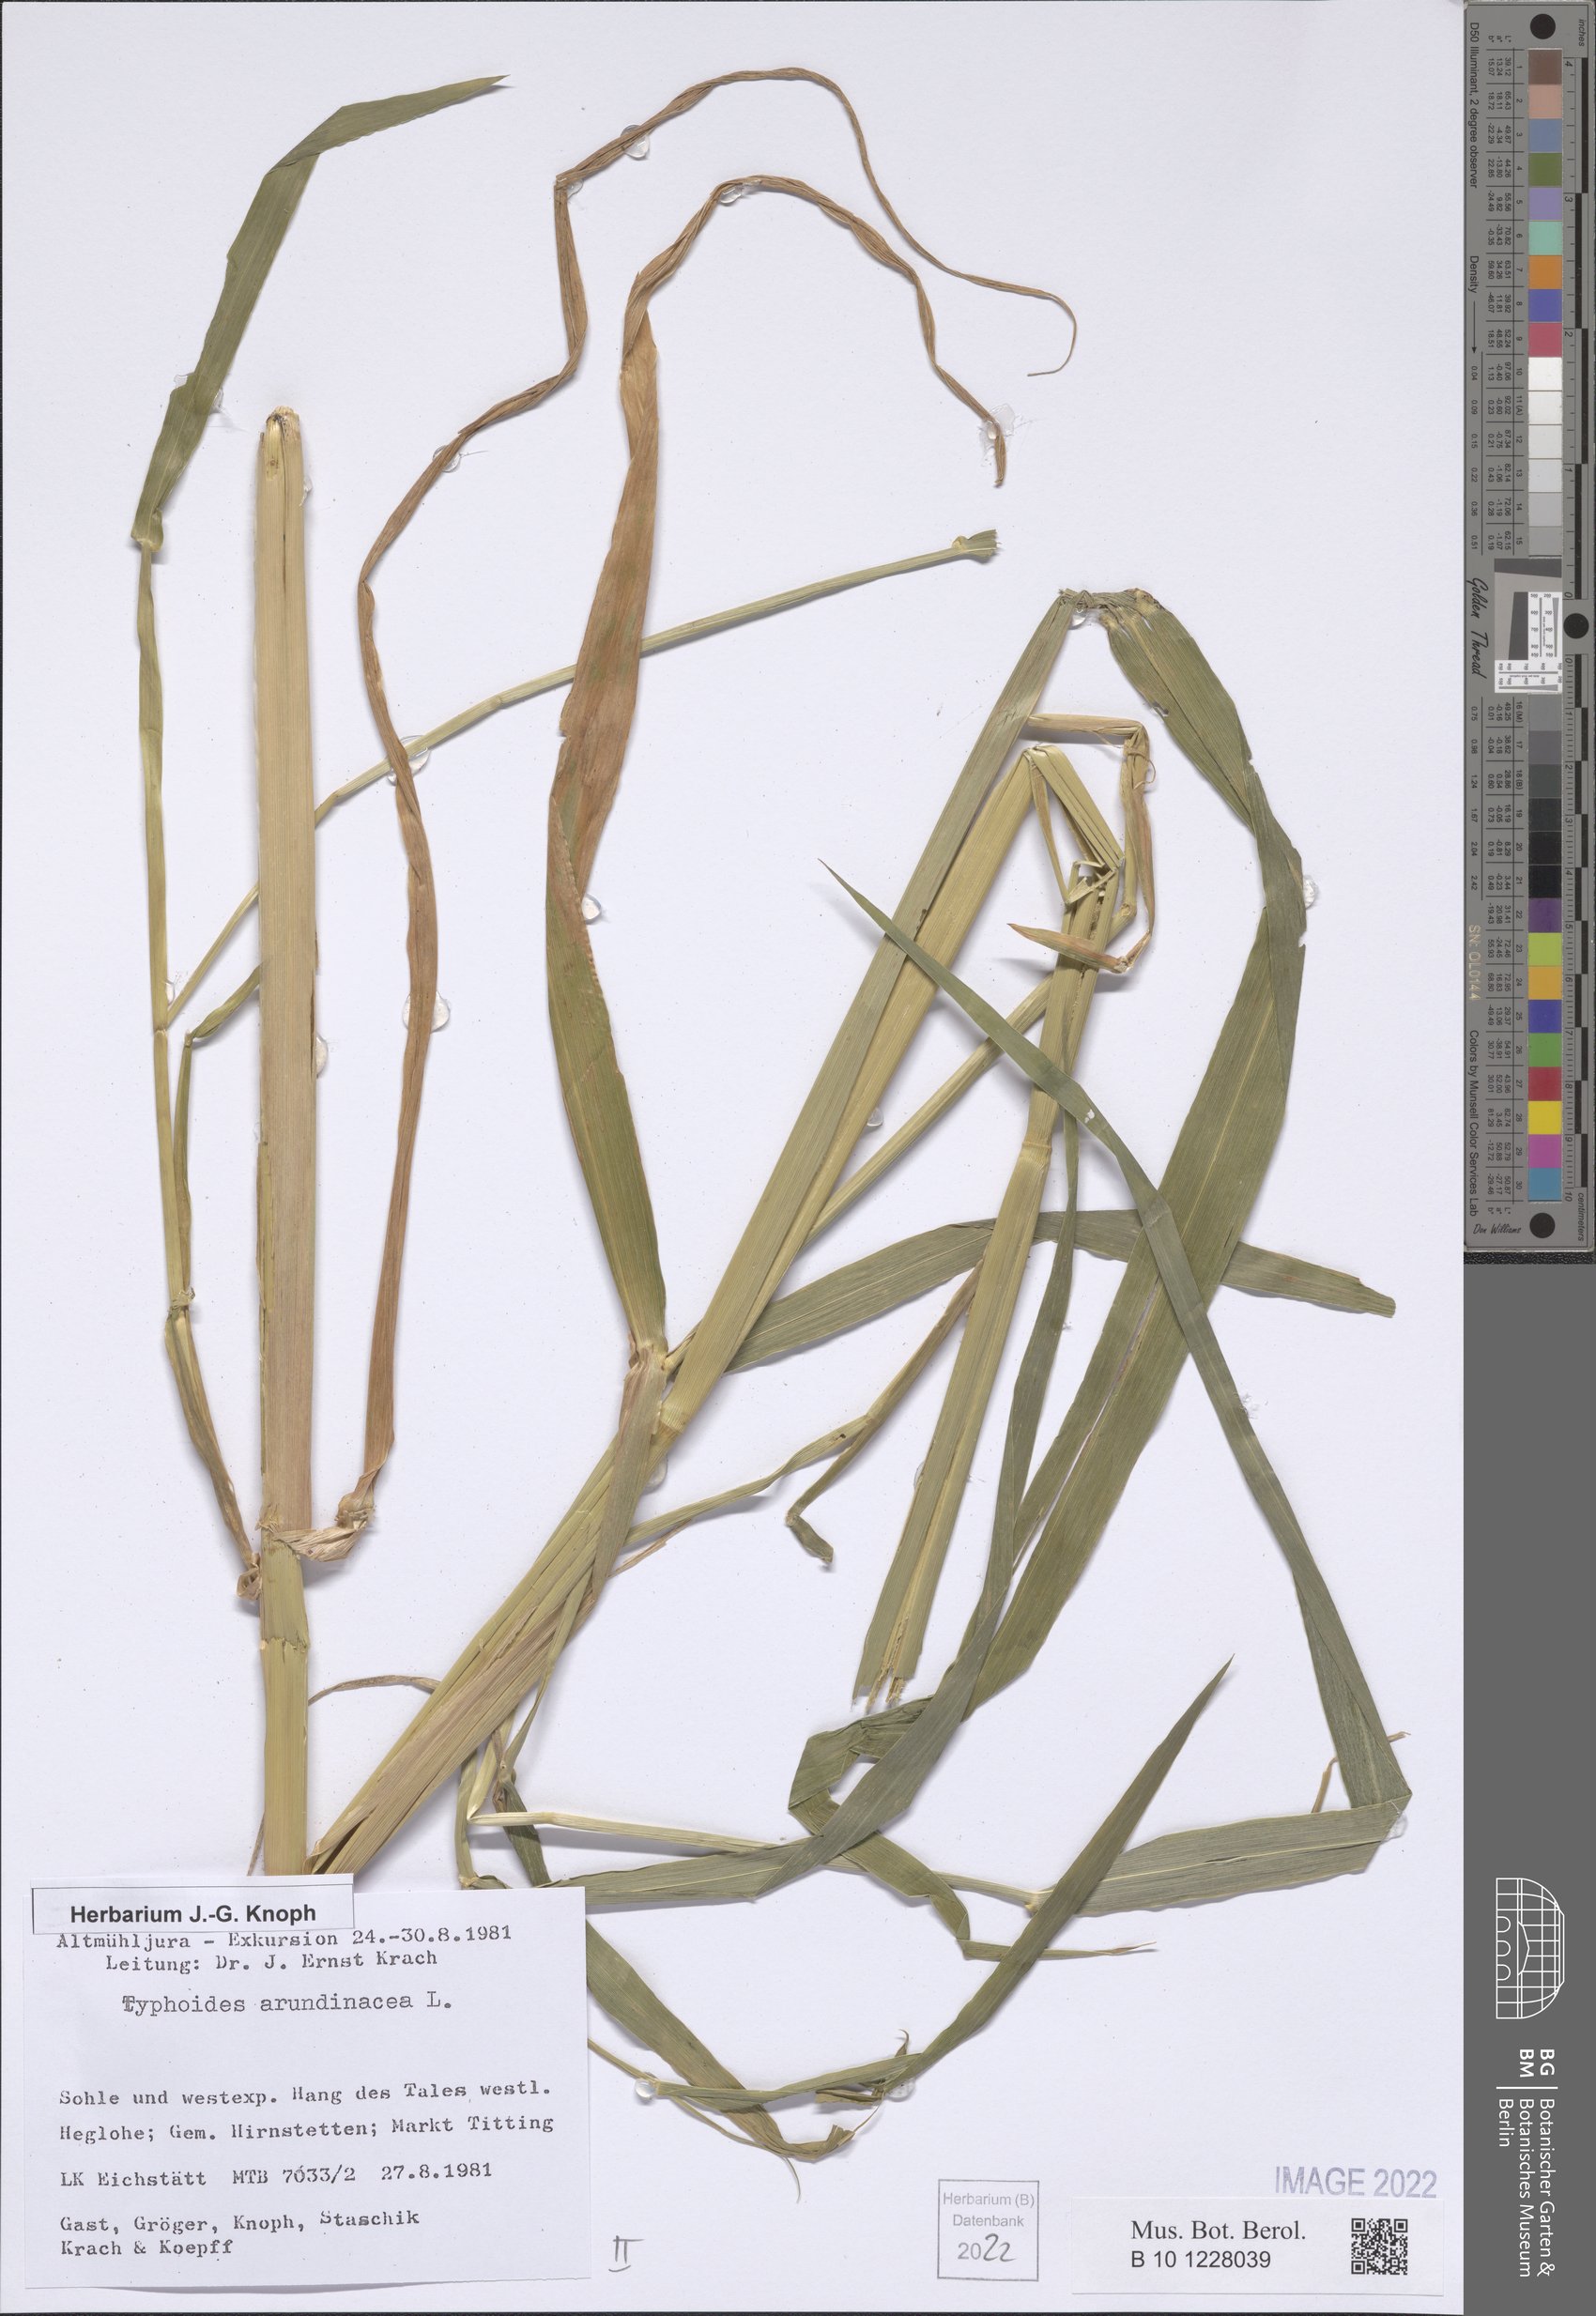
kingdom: Plantae
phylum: Tracheophyta
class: Liliopsida
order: Poales
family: Poaceae
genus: Phalaris
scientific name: Phalaris arundinacea
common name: Reed canary-grass
